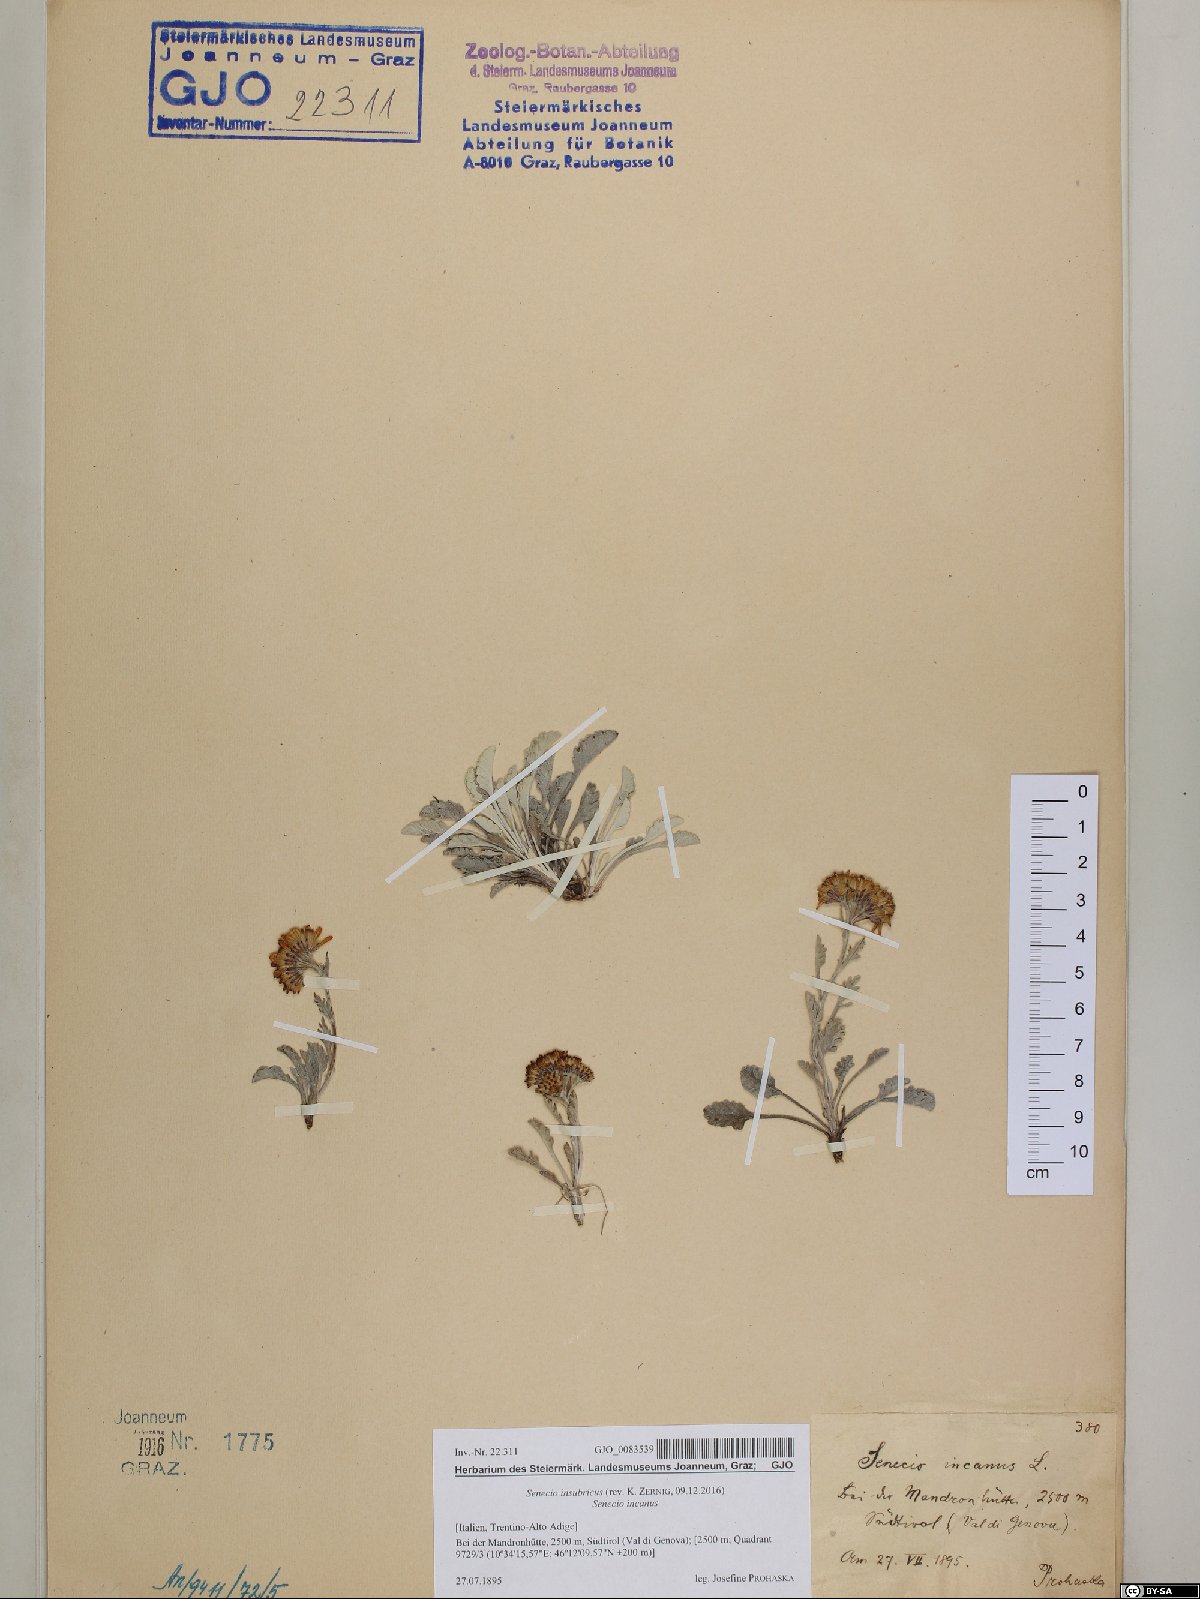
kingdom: Plantae
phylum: Tracheophyta
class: Magnoliopsida
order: Asterales
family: Asteraceae
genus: Jacobaea
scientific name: Jacobaea insubrica
